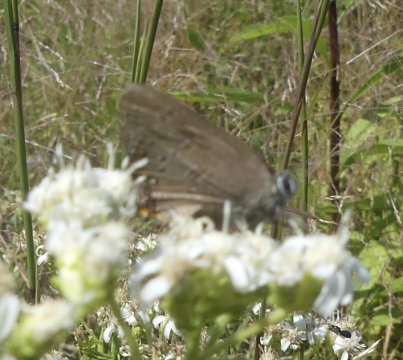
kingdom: Animalia
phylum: Arthropoda
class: Insecta
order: Lepidoptera
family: Lycaenidae
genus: Satyrium
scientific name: Satyrium edwardsii
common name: Edwards' Hairstreak
